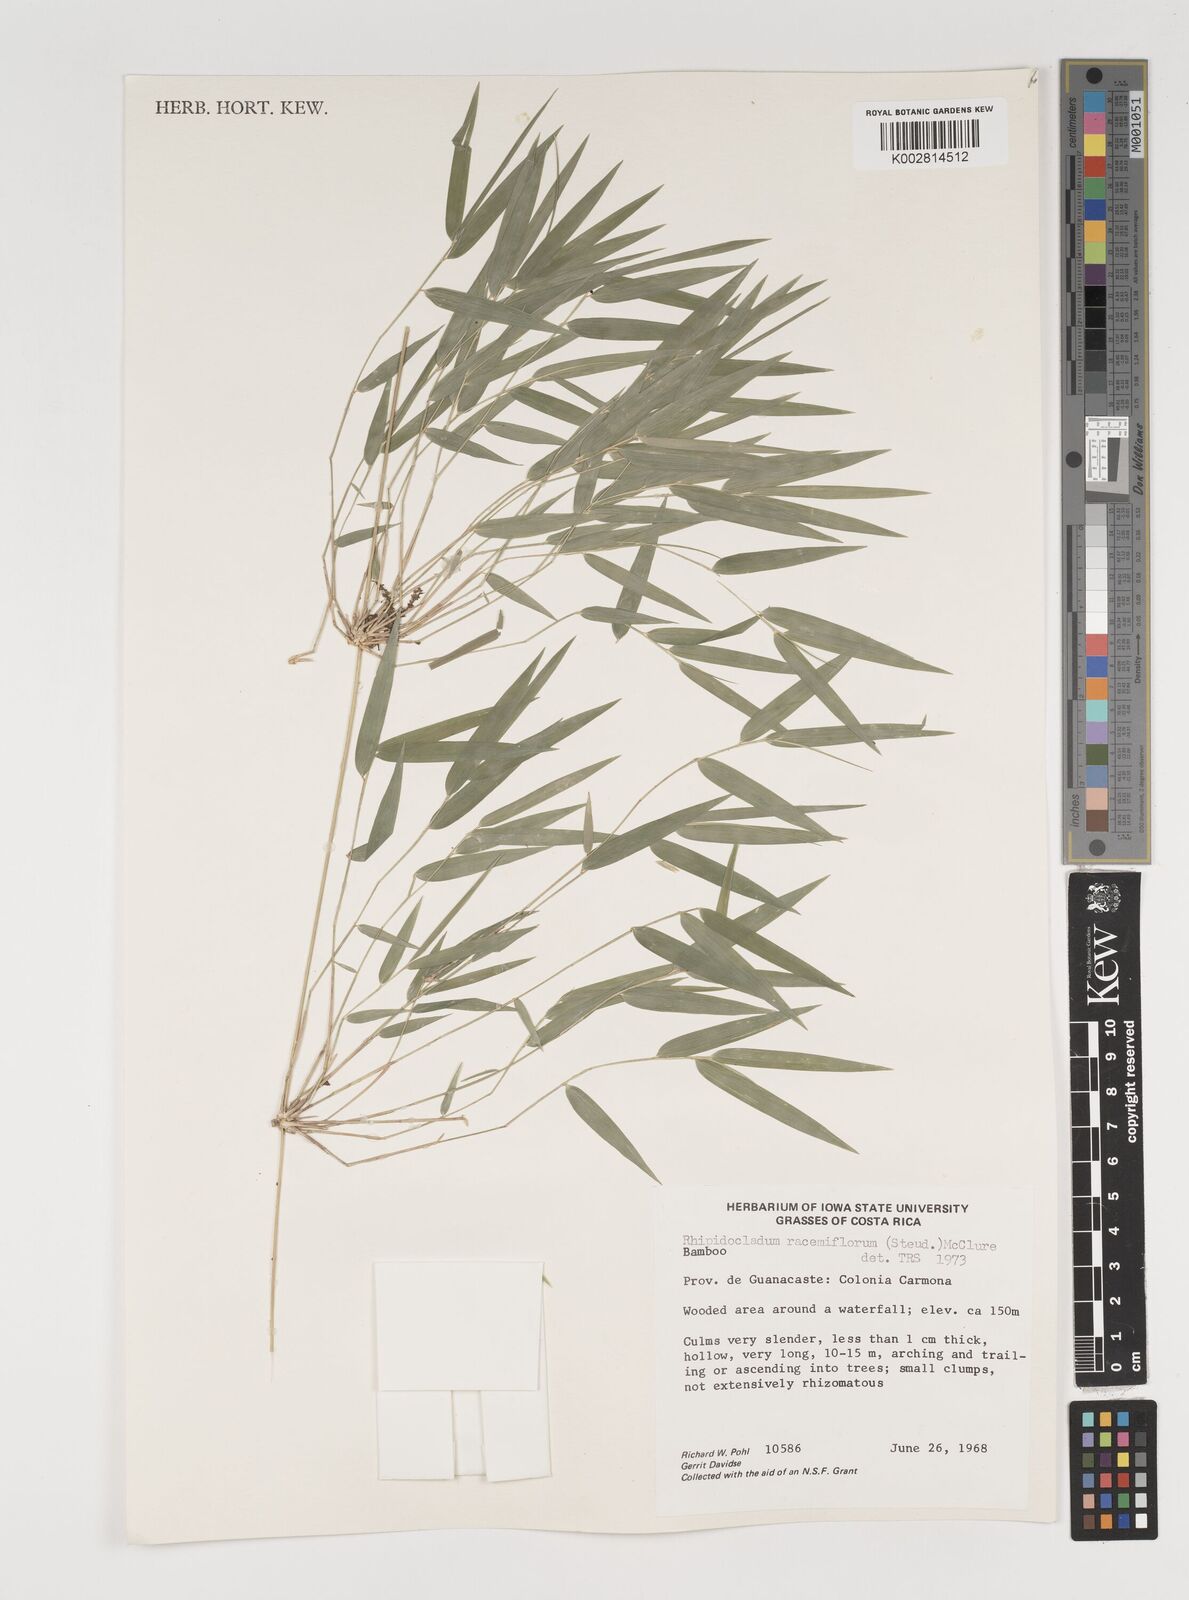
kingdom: Plantae
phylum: Tracheophyta
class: Liliopsida
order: Poales
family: Poaceae
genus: Rhipidocladum
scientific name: Rhipidocladum racemiflorum
